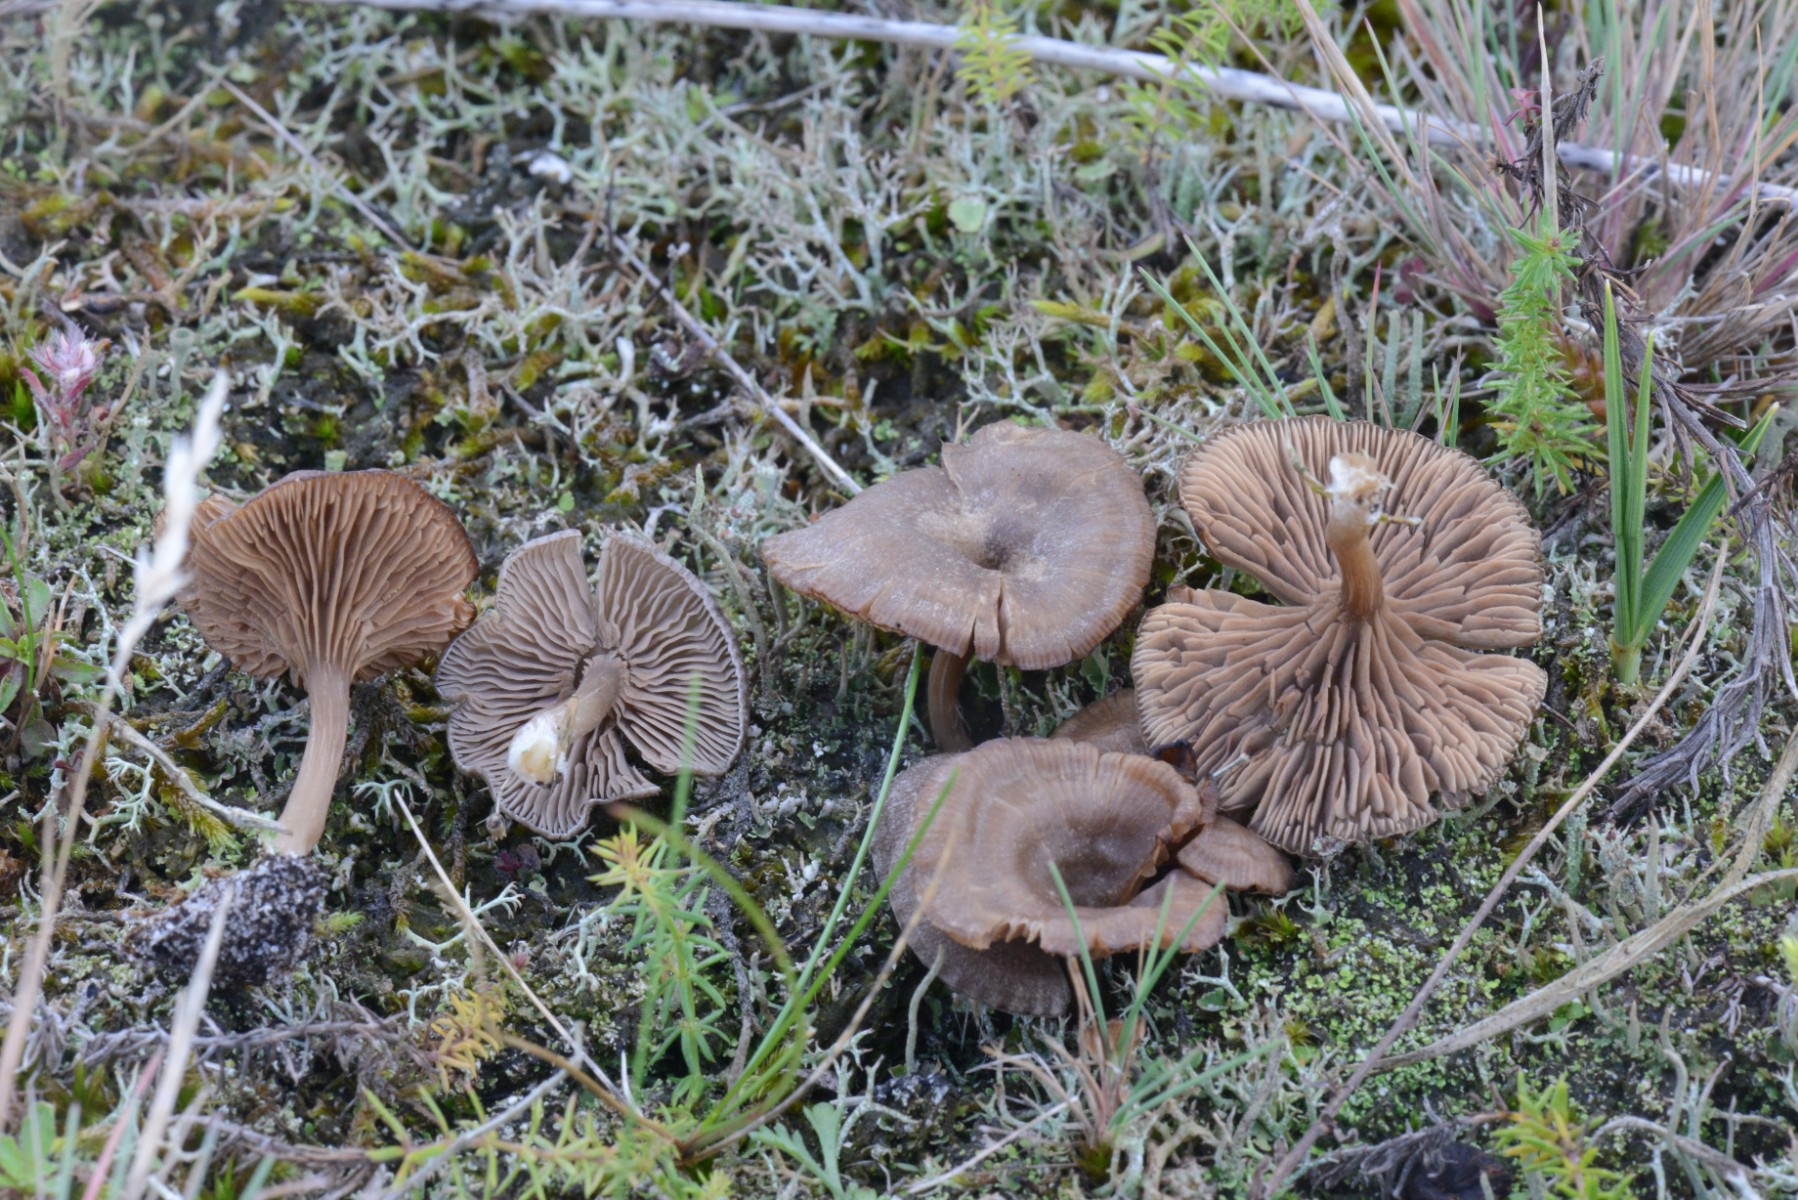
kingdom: Fungi
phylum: Basidiomycota
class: Agaricomycetes
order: Agaricales
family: Entolomataceae
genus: Entoloma
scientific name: Entoloma undatum
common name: bæltet rødblad
